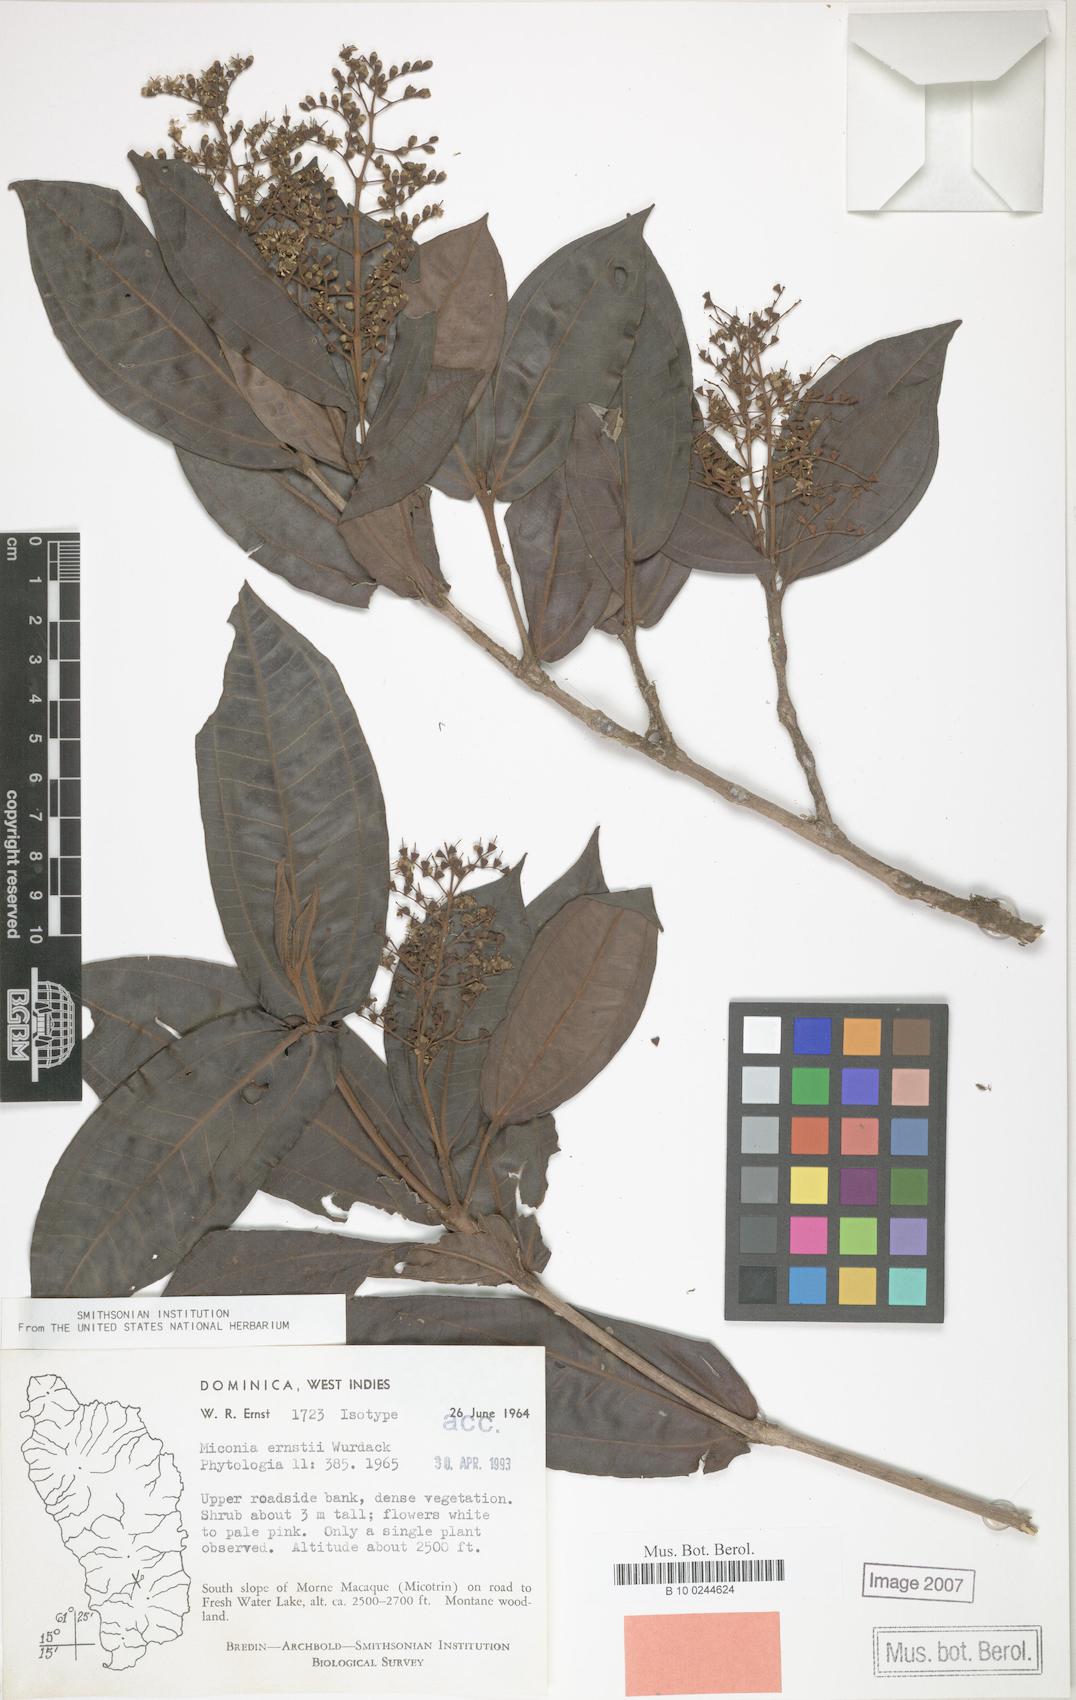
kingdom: Plantae
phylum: Tracheophyta
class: Magnoliopsida
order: Myrtales
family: Melastomataceae
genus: Miconia
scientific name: Miconia ernstii
